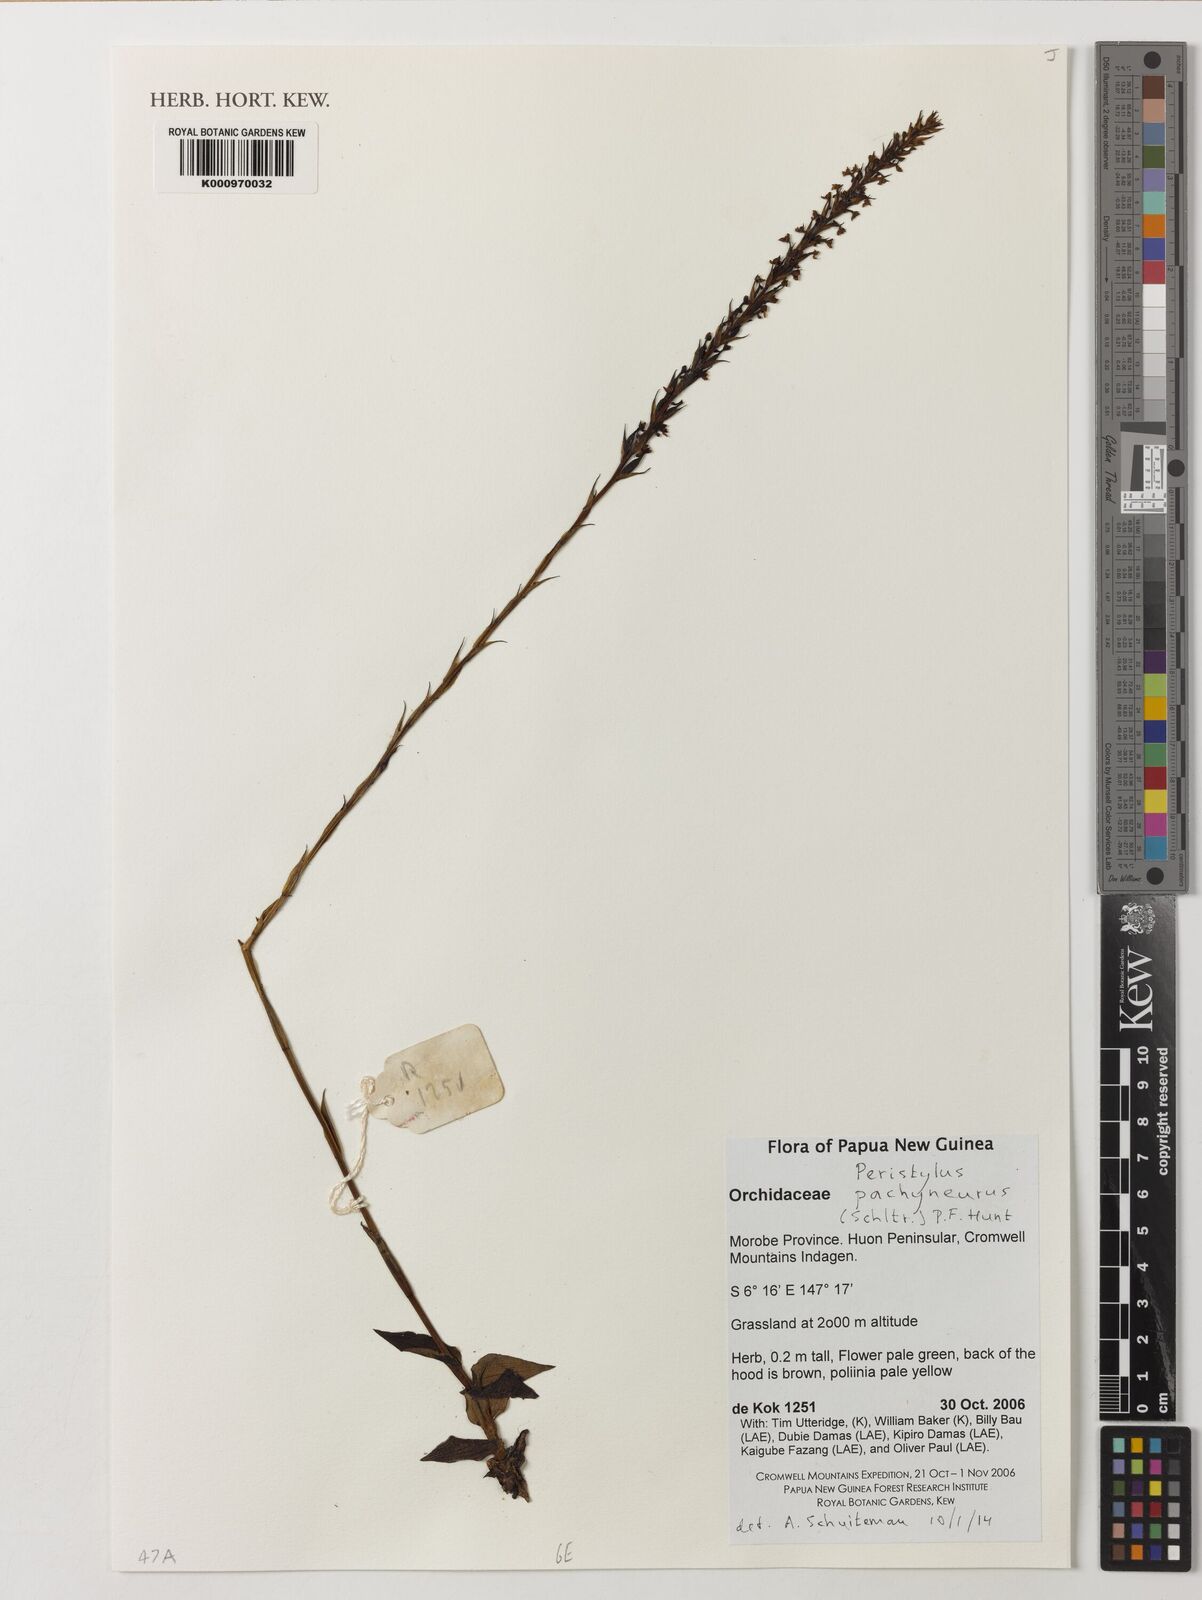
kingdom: Plantae
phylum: Tracheophyta
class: Liliopsida
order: Asparagales
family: Orchidaceae
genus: Peristylus
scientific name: Peristylus pachyneurus
